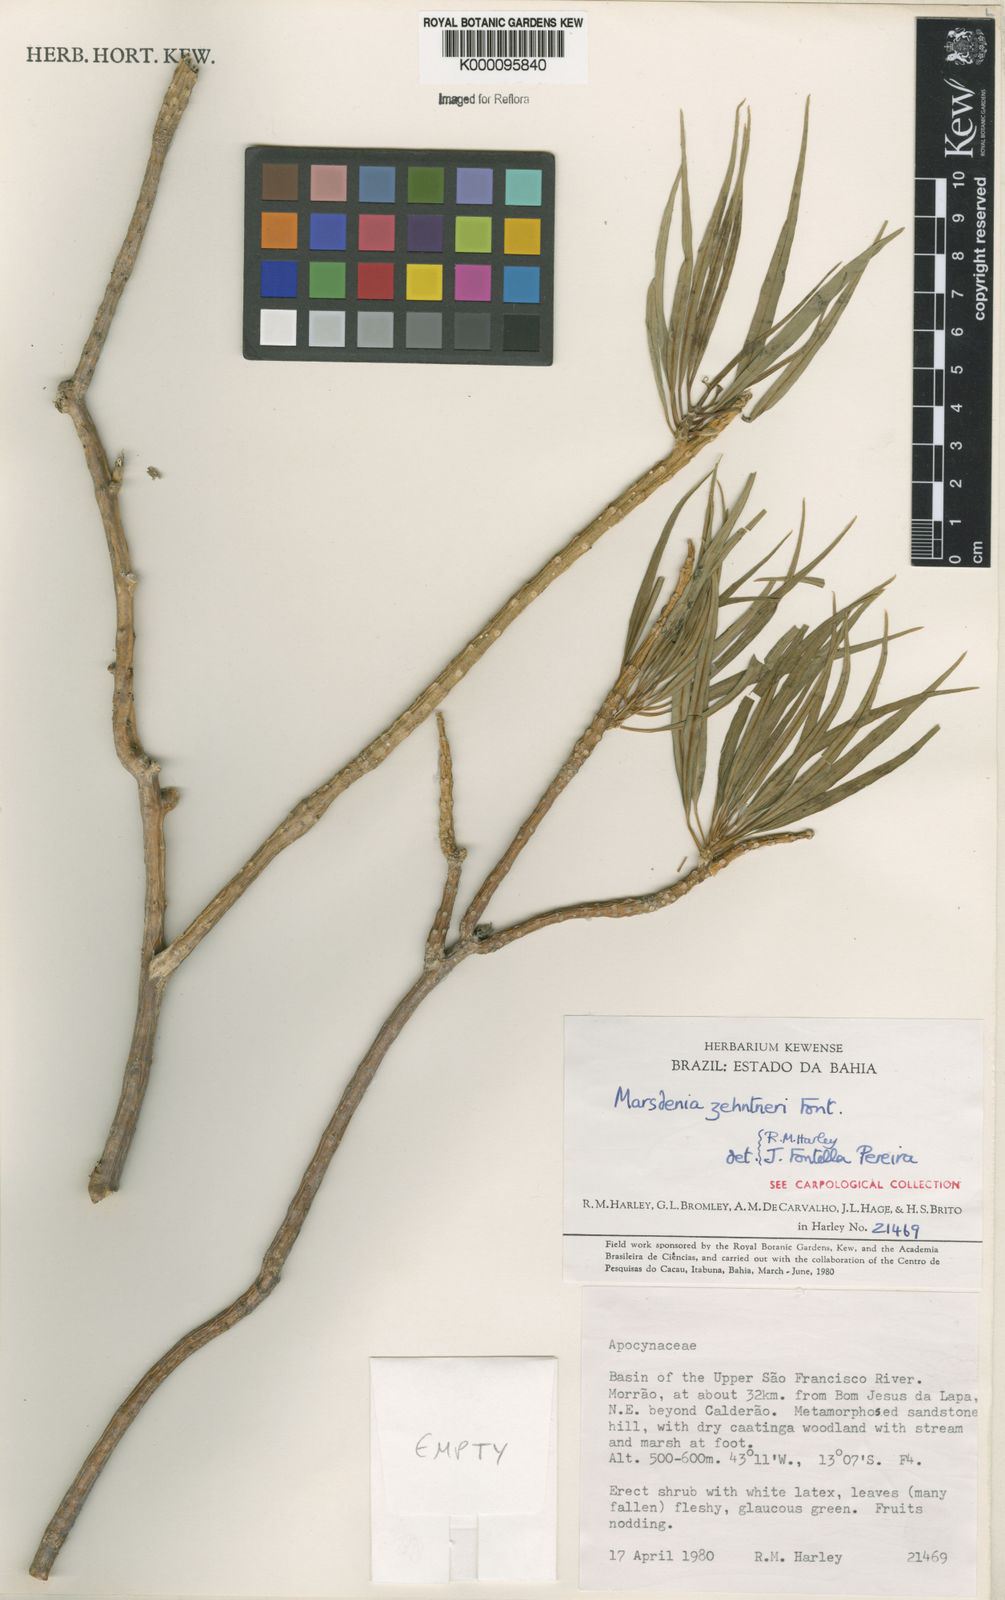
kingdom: Plantae
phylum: Tracheophyta
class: Magnoliopsida
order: Gentianales
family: Apocynaceae
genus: Ruehssia
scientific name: Ruehssia zehntneri
